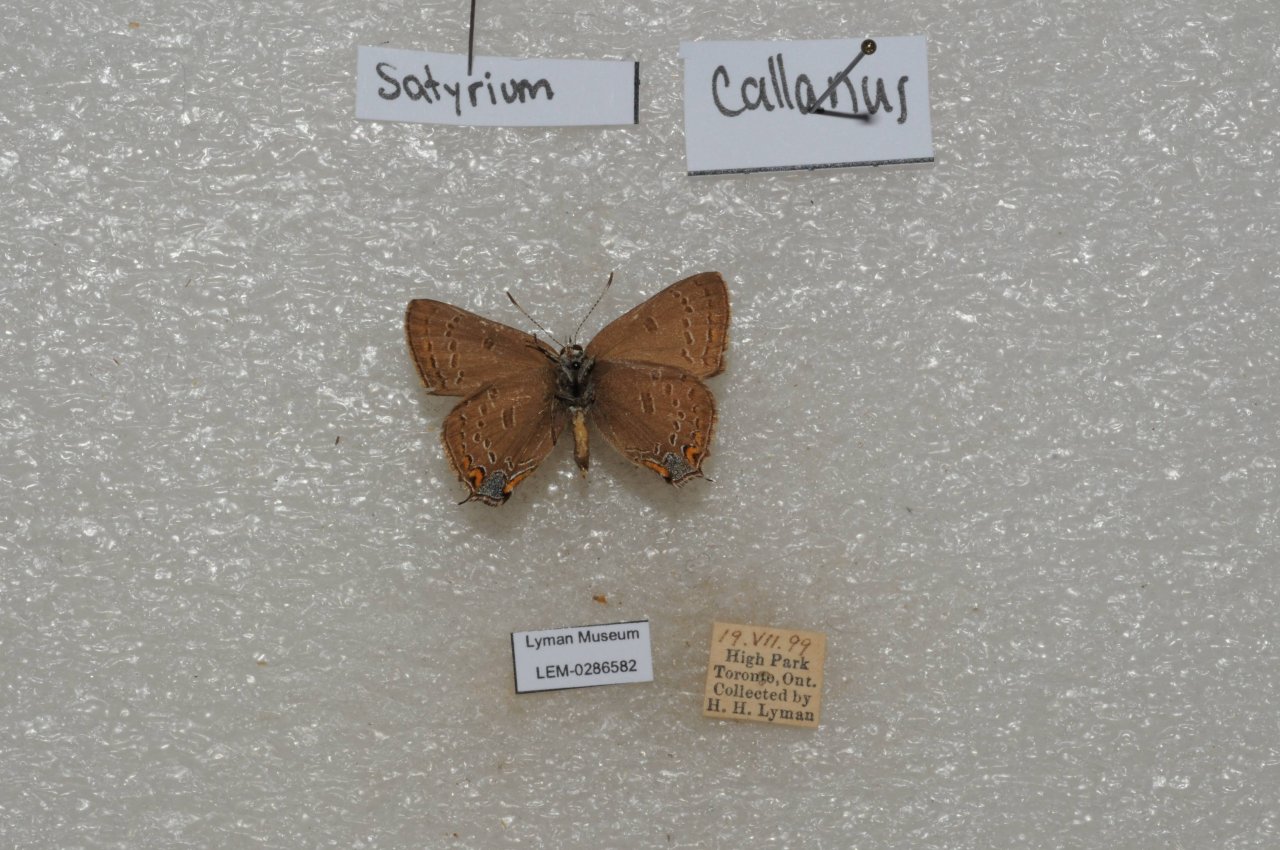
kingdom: Animalia
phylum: Arthropoda
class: Insecta
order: Lepidoptera
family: Lycaenidae
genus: Satyrium
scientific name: Satyrium calanus
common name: Banded Hairstreak
